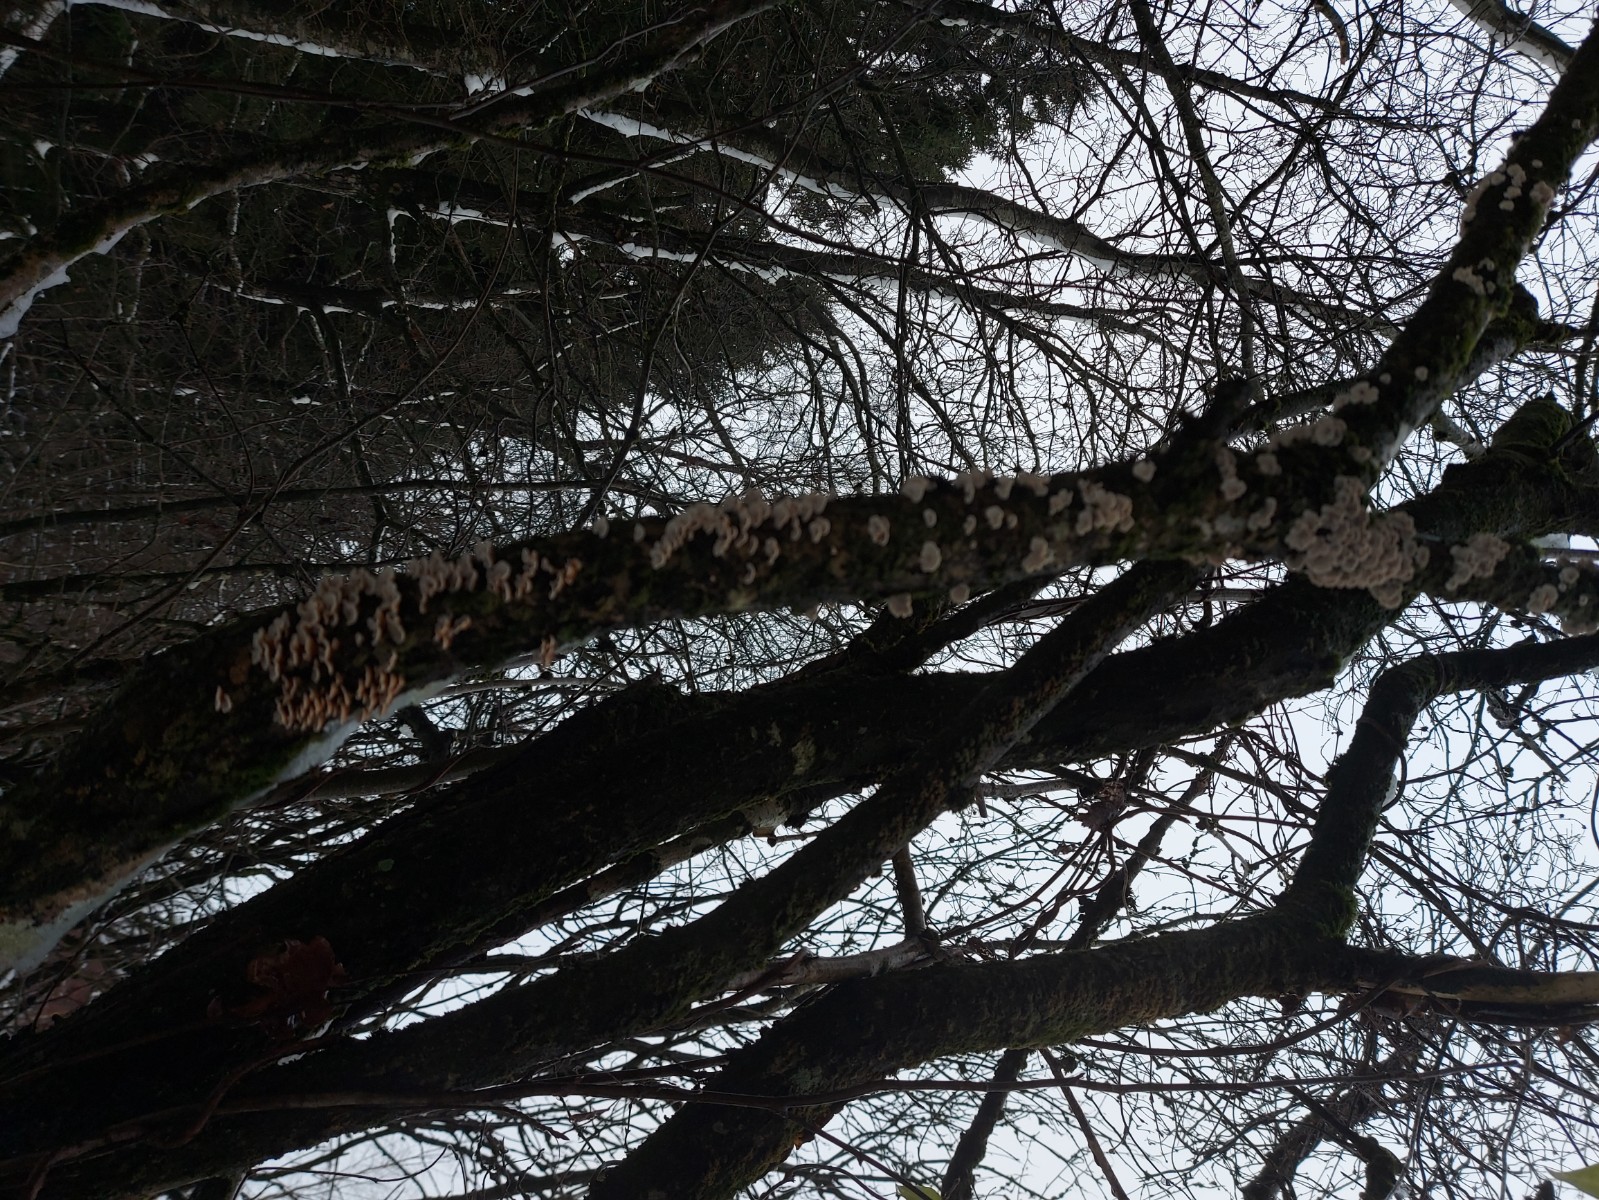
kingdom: Fungi
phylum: Basidiomycota
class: Agaricomycetes
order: Amylocorticiales
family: Amylocorticiaceae
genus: Plicaturopsis
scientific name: Plicaturopsis crispa
